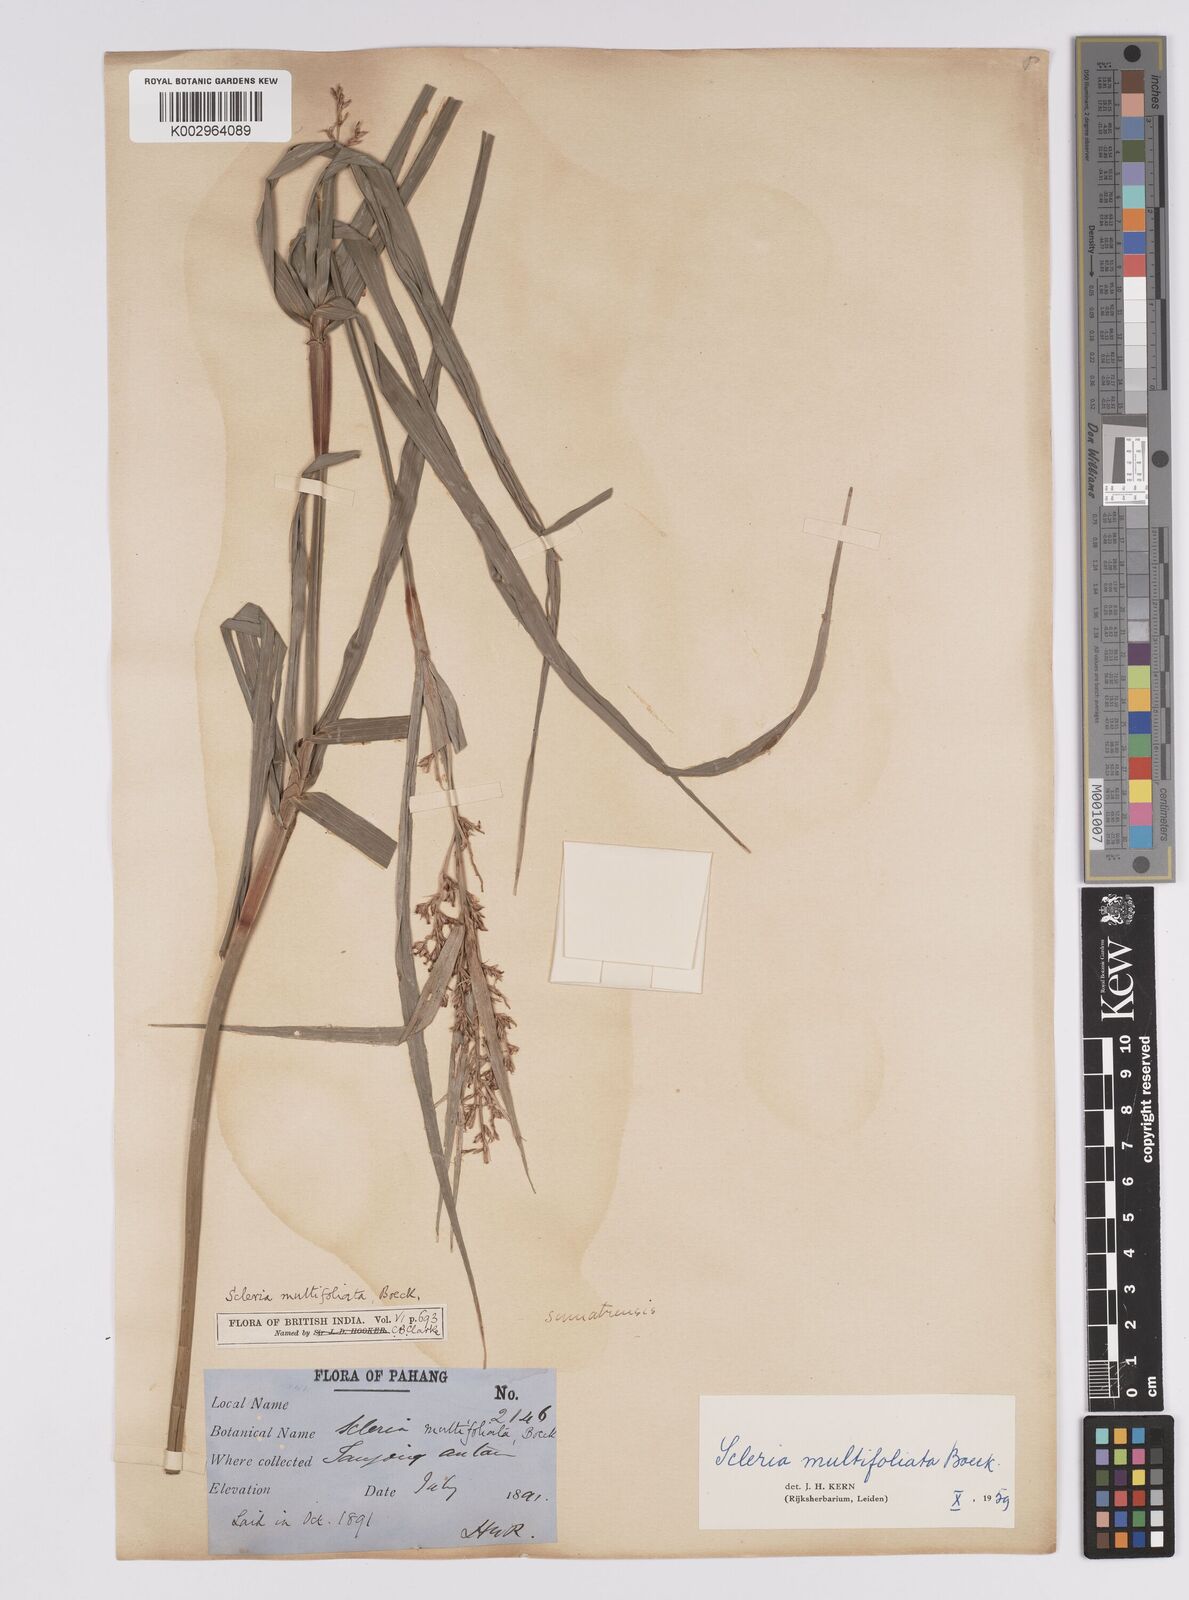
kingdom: Plantae
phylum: Tracheophyta
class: Liliopsida
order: Poales
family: Cyperaceae
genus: Scleria
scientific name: Scleria purpurascens
